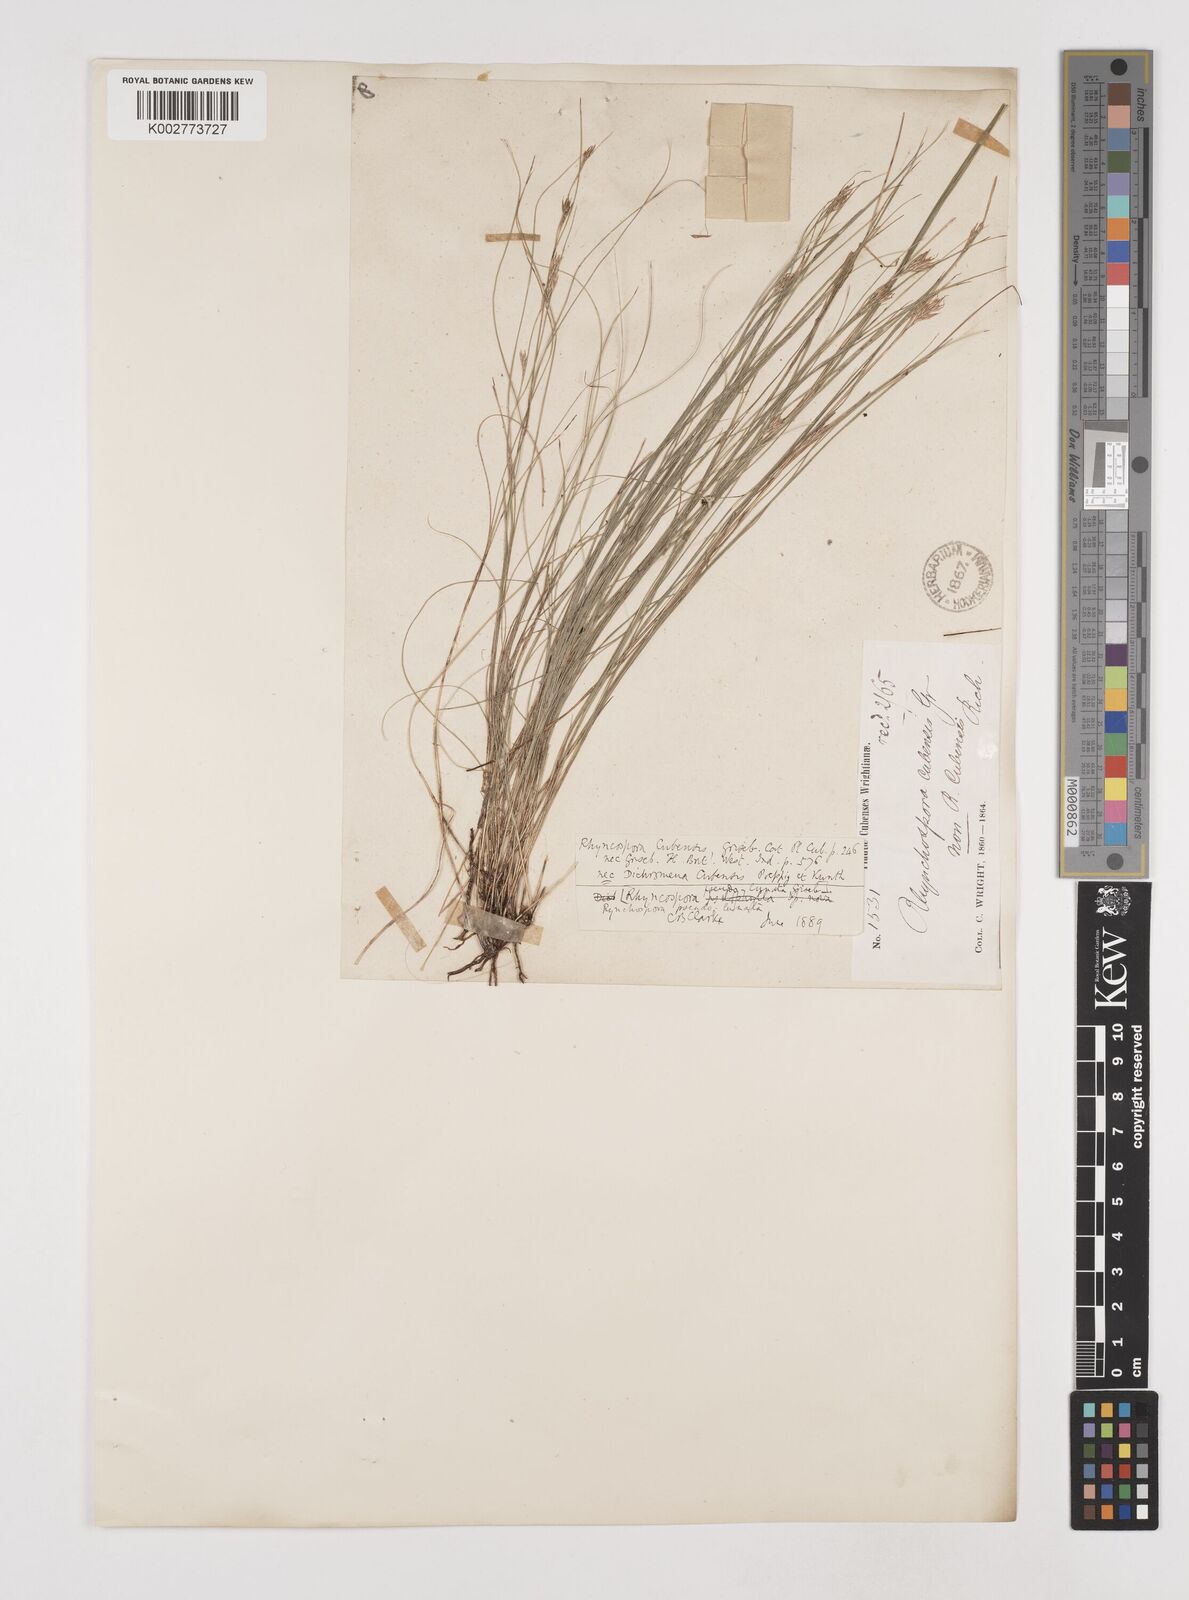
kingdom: Plantae
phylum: Tracheophyta
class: Liliopsida
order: Poales
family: Cyperaceae
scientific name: Cyperaceae
